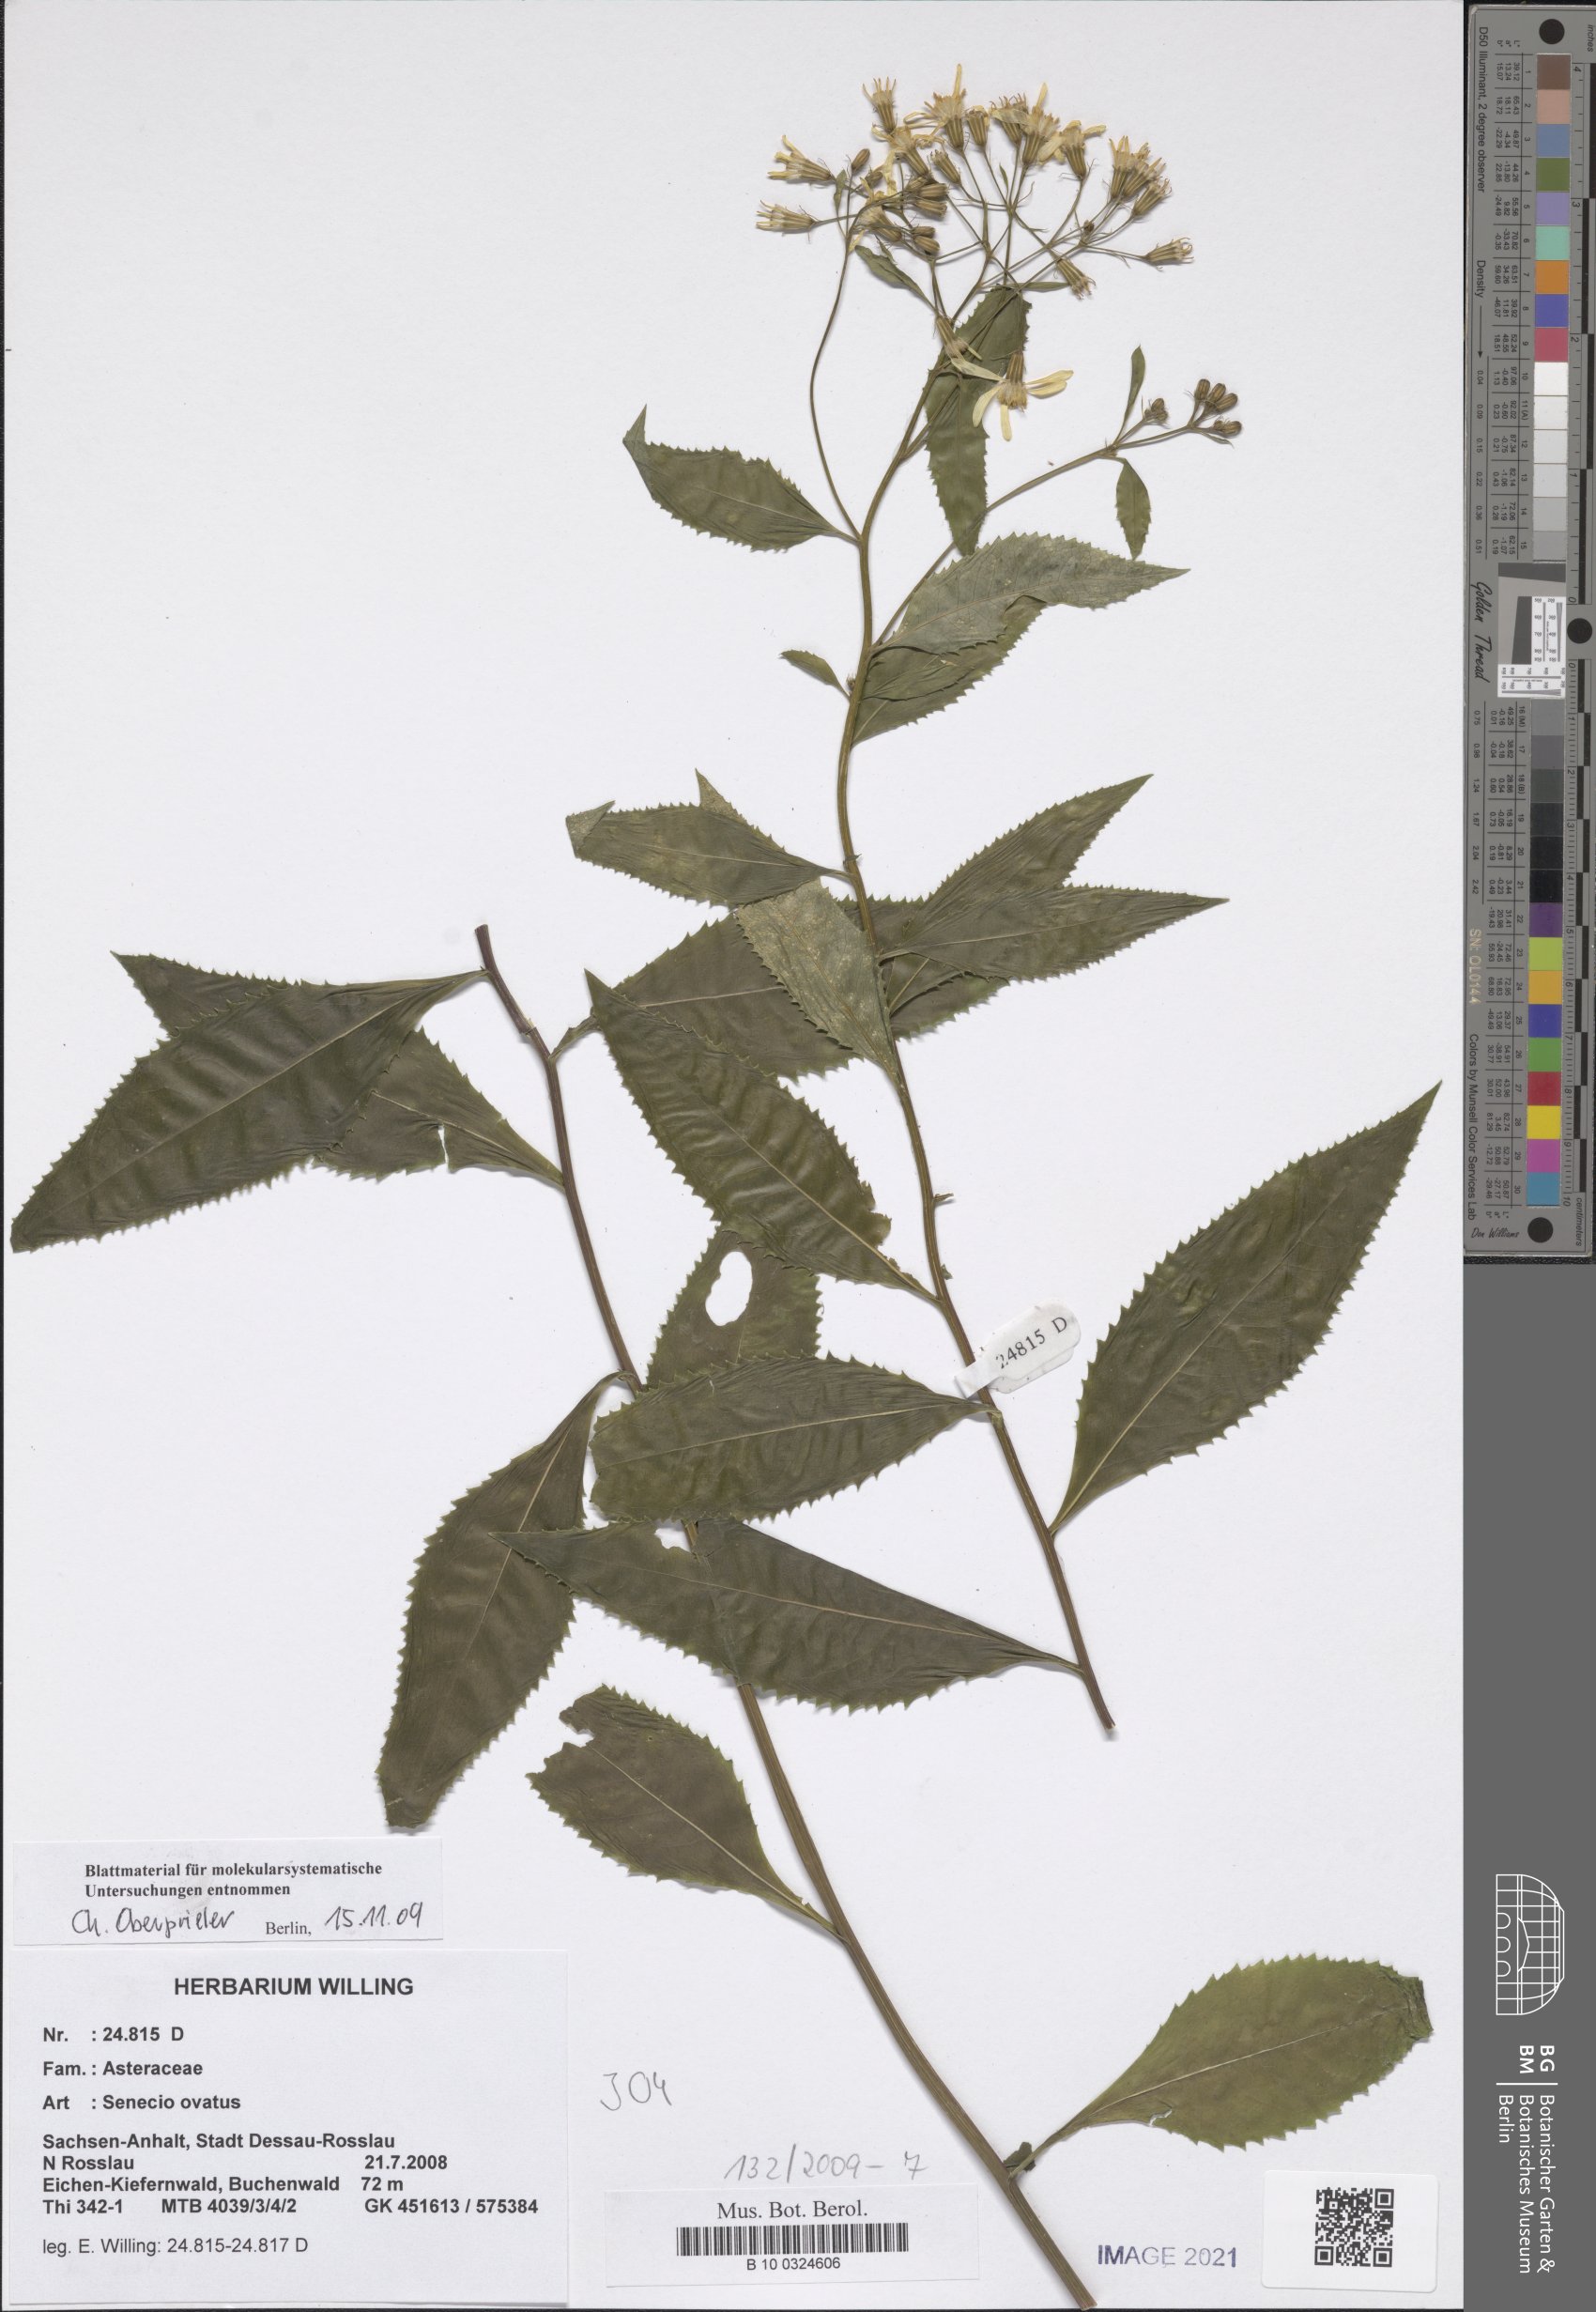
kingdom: Plantae
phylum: Tracheophyta
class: Magnoliopsida
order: Asterales
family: Asteraceae
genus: Senecio
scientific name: Senecio ovatus
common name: Wood ragwort
